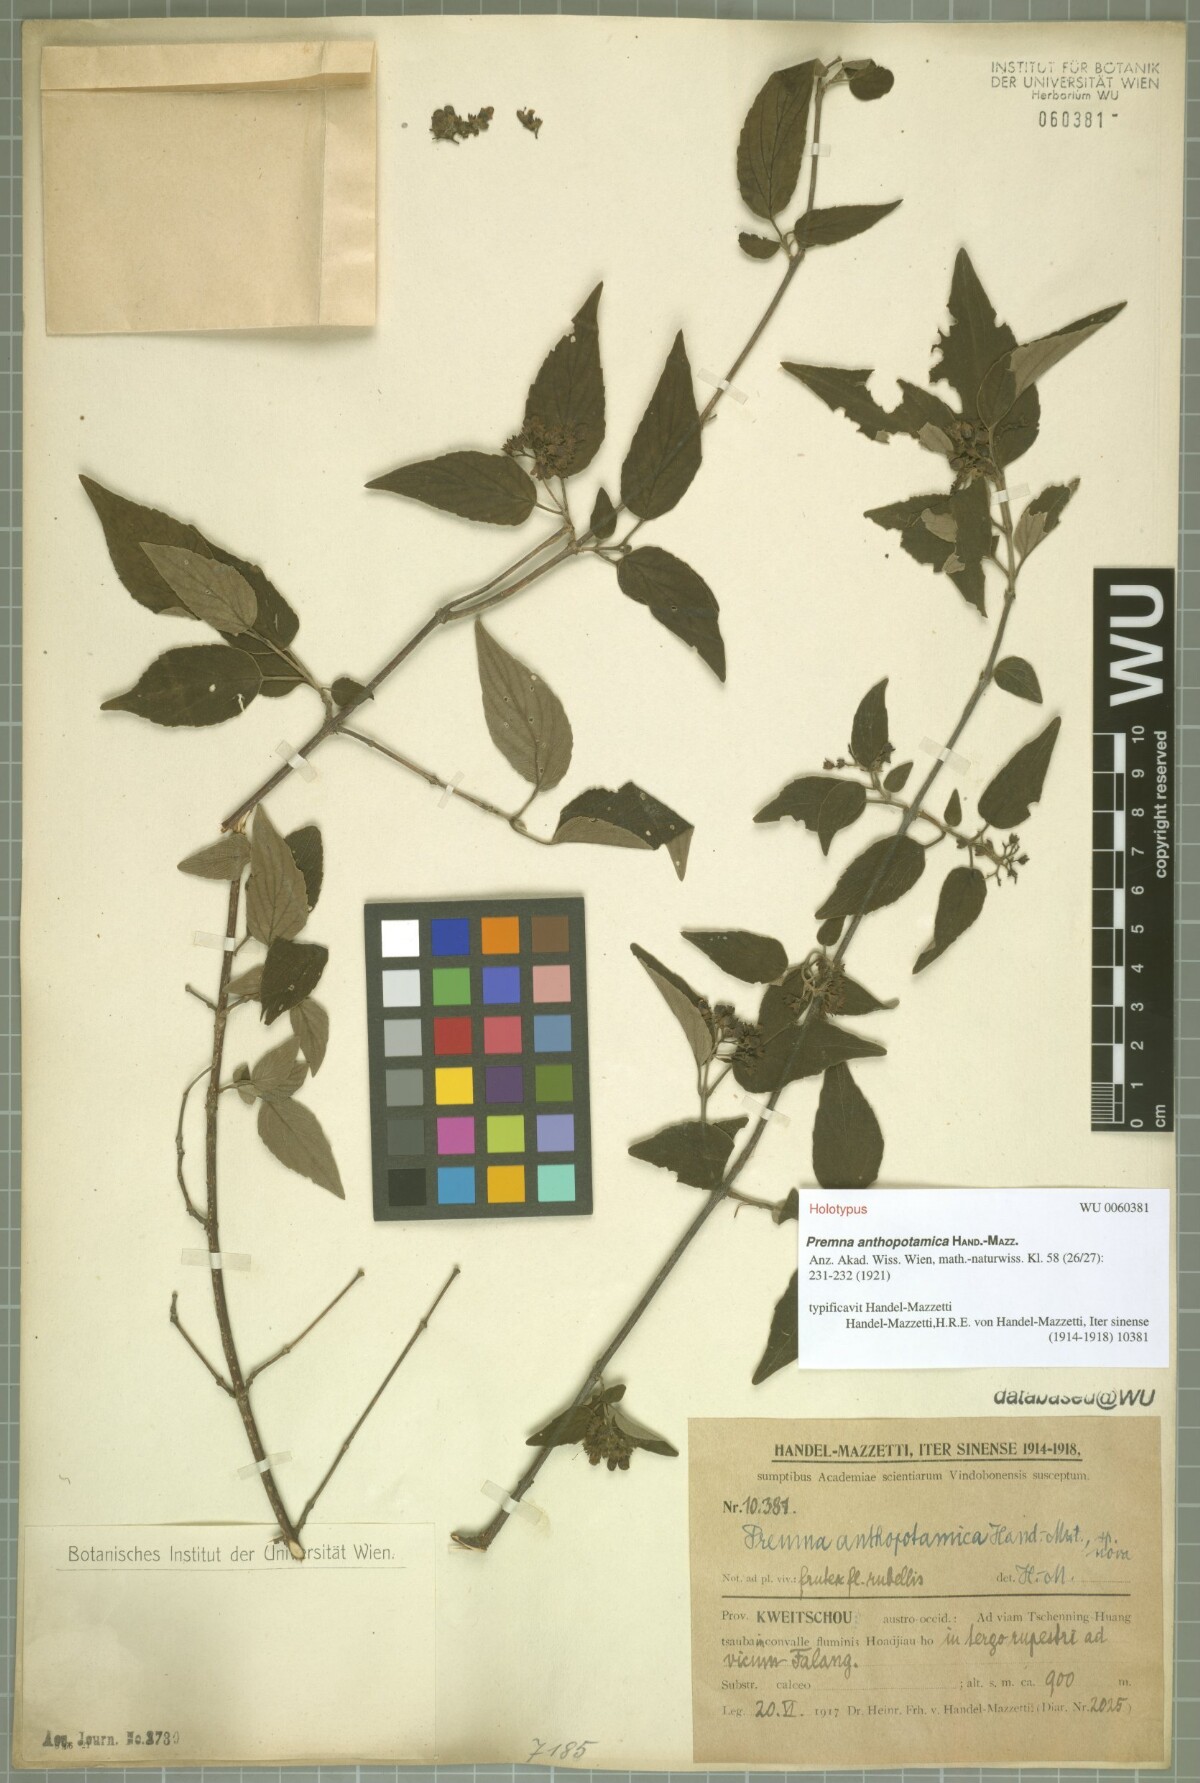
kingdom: Plantae
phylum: Tracheophyta
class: Magnoliopsida
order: Lamiales
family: Lamiaceae
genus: Premna
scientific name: Premna acutata
